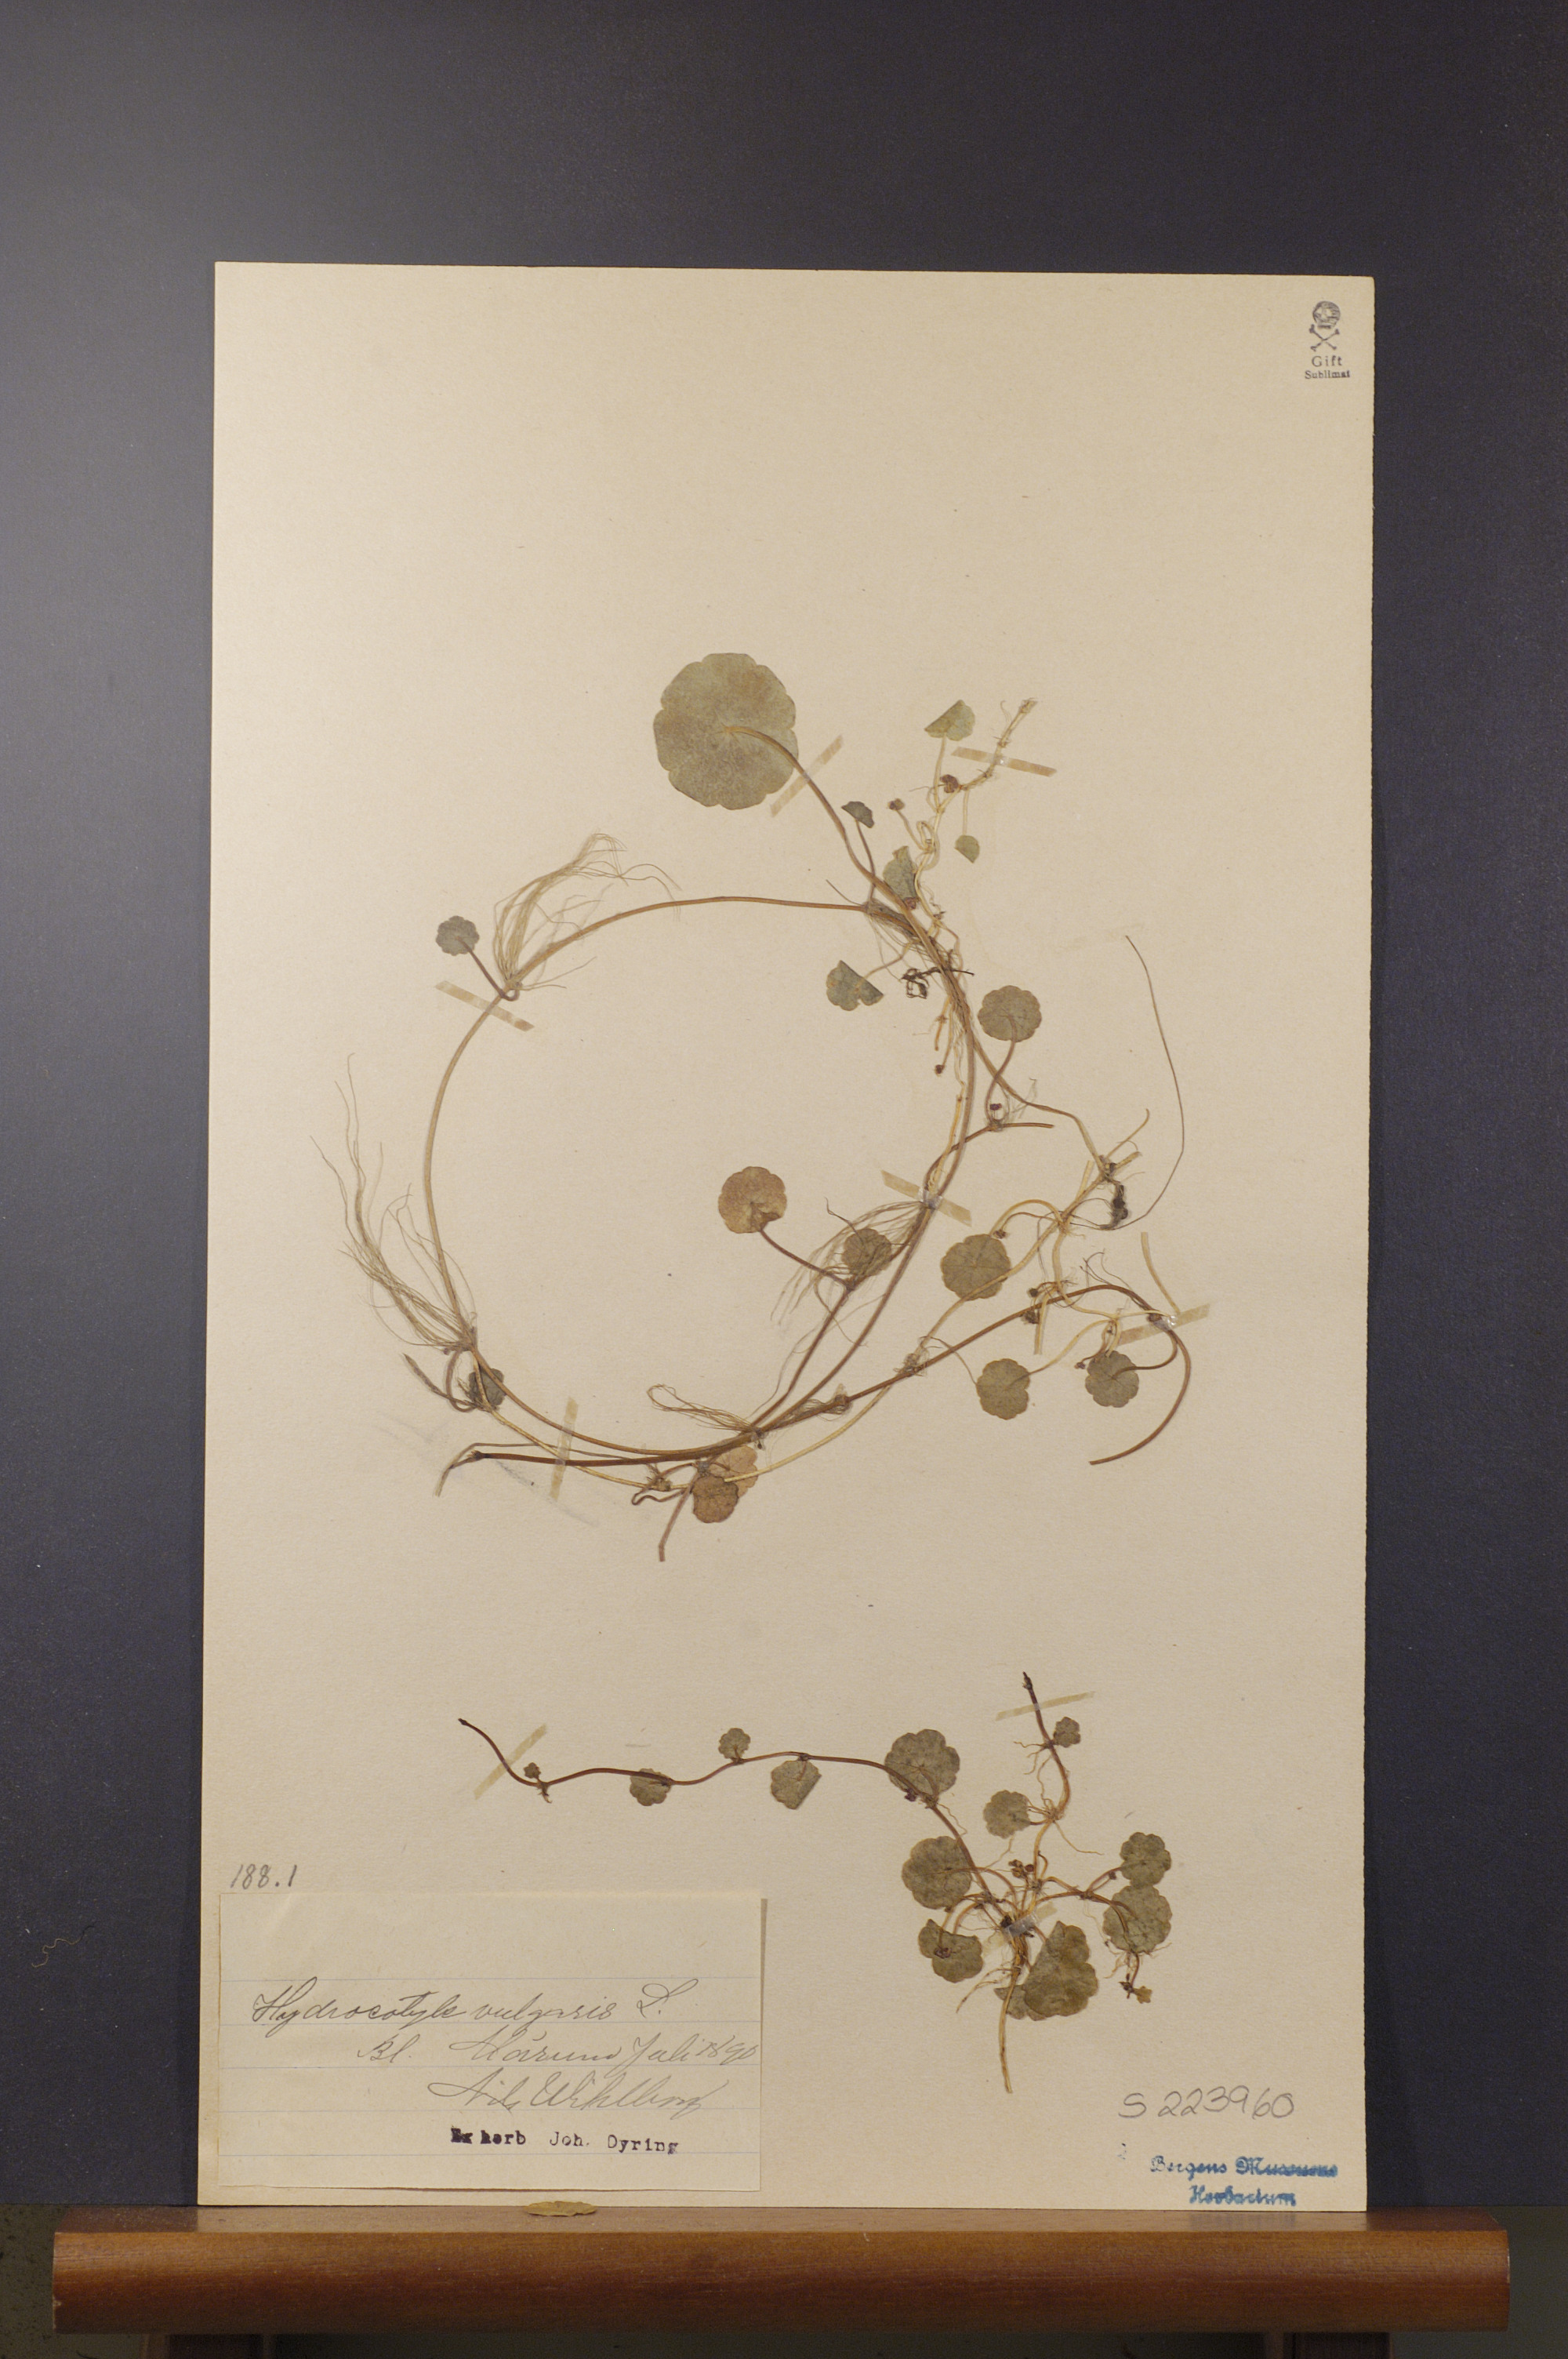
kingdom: Plantae
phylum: Tracheophyta
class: Magnoliopsida
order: Apiales
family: Araliaceae
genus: Hydrocotyle
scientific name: Hydrocotyle vulgaris
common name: Marsh pennywort
